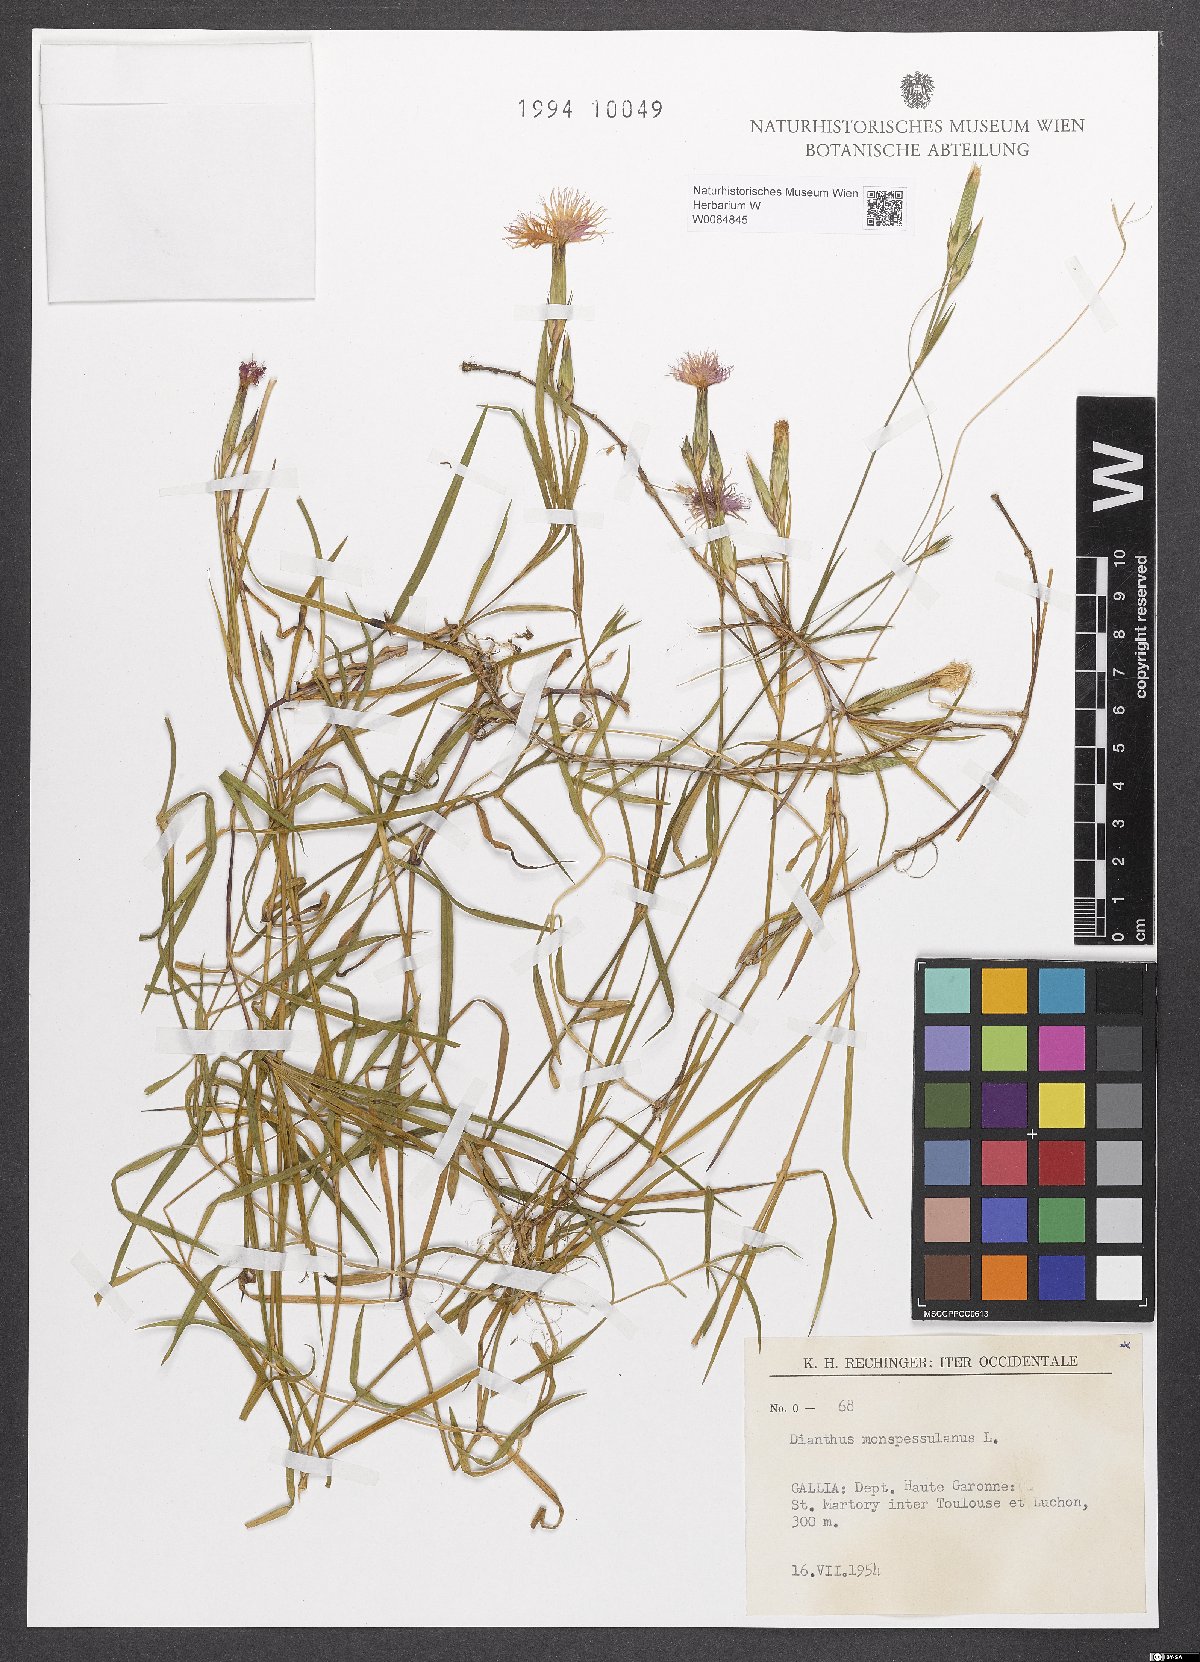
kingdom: Plantae
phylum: Tracheophyta
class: Magnoliopsida
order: Caryophyllales
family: Caryophyllaceae
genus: Dianthus
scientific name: Dianthus hyssopifolius
